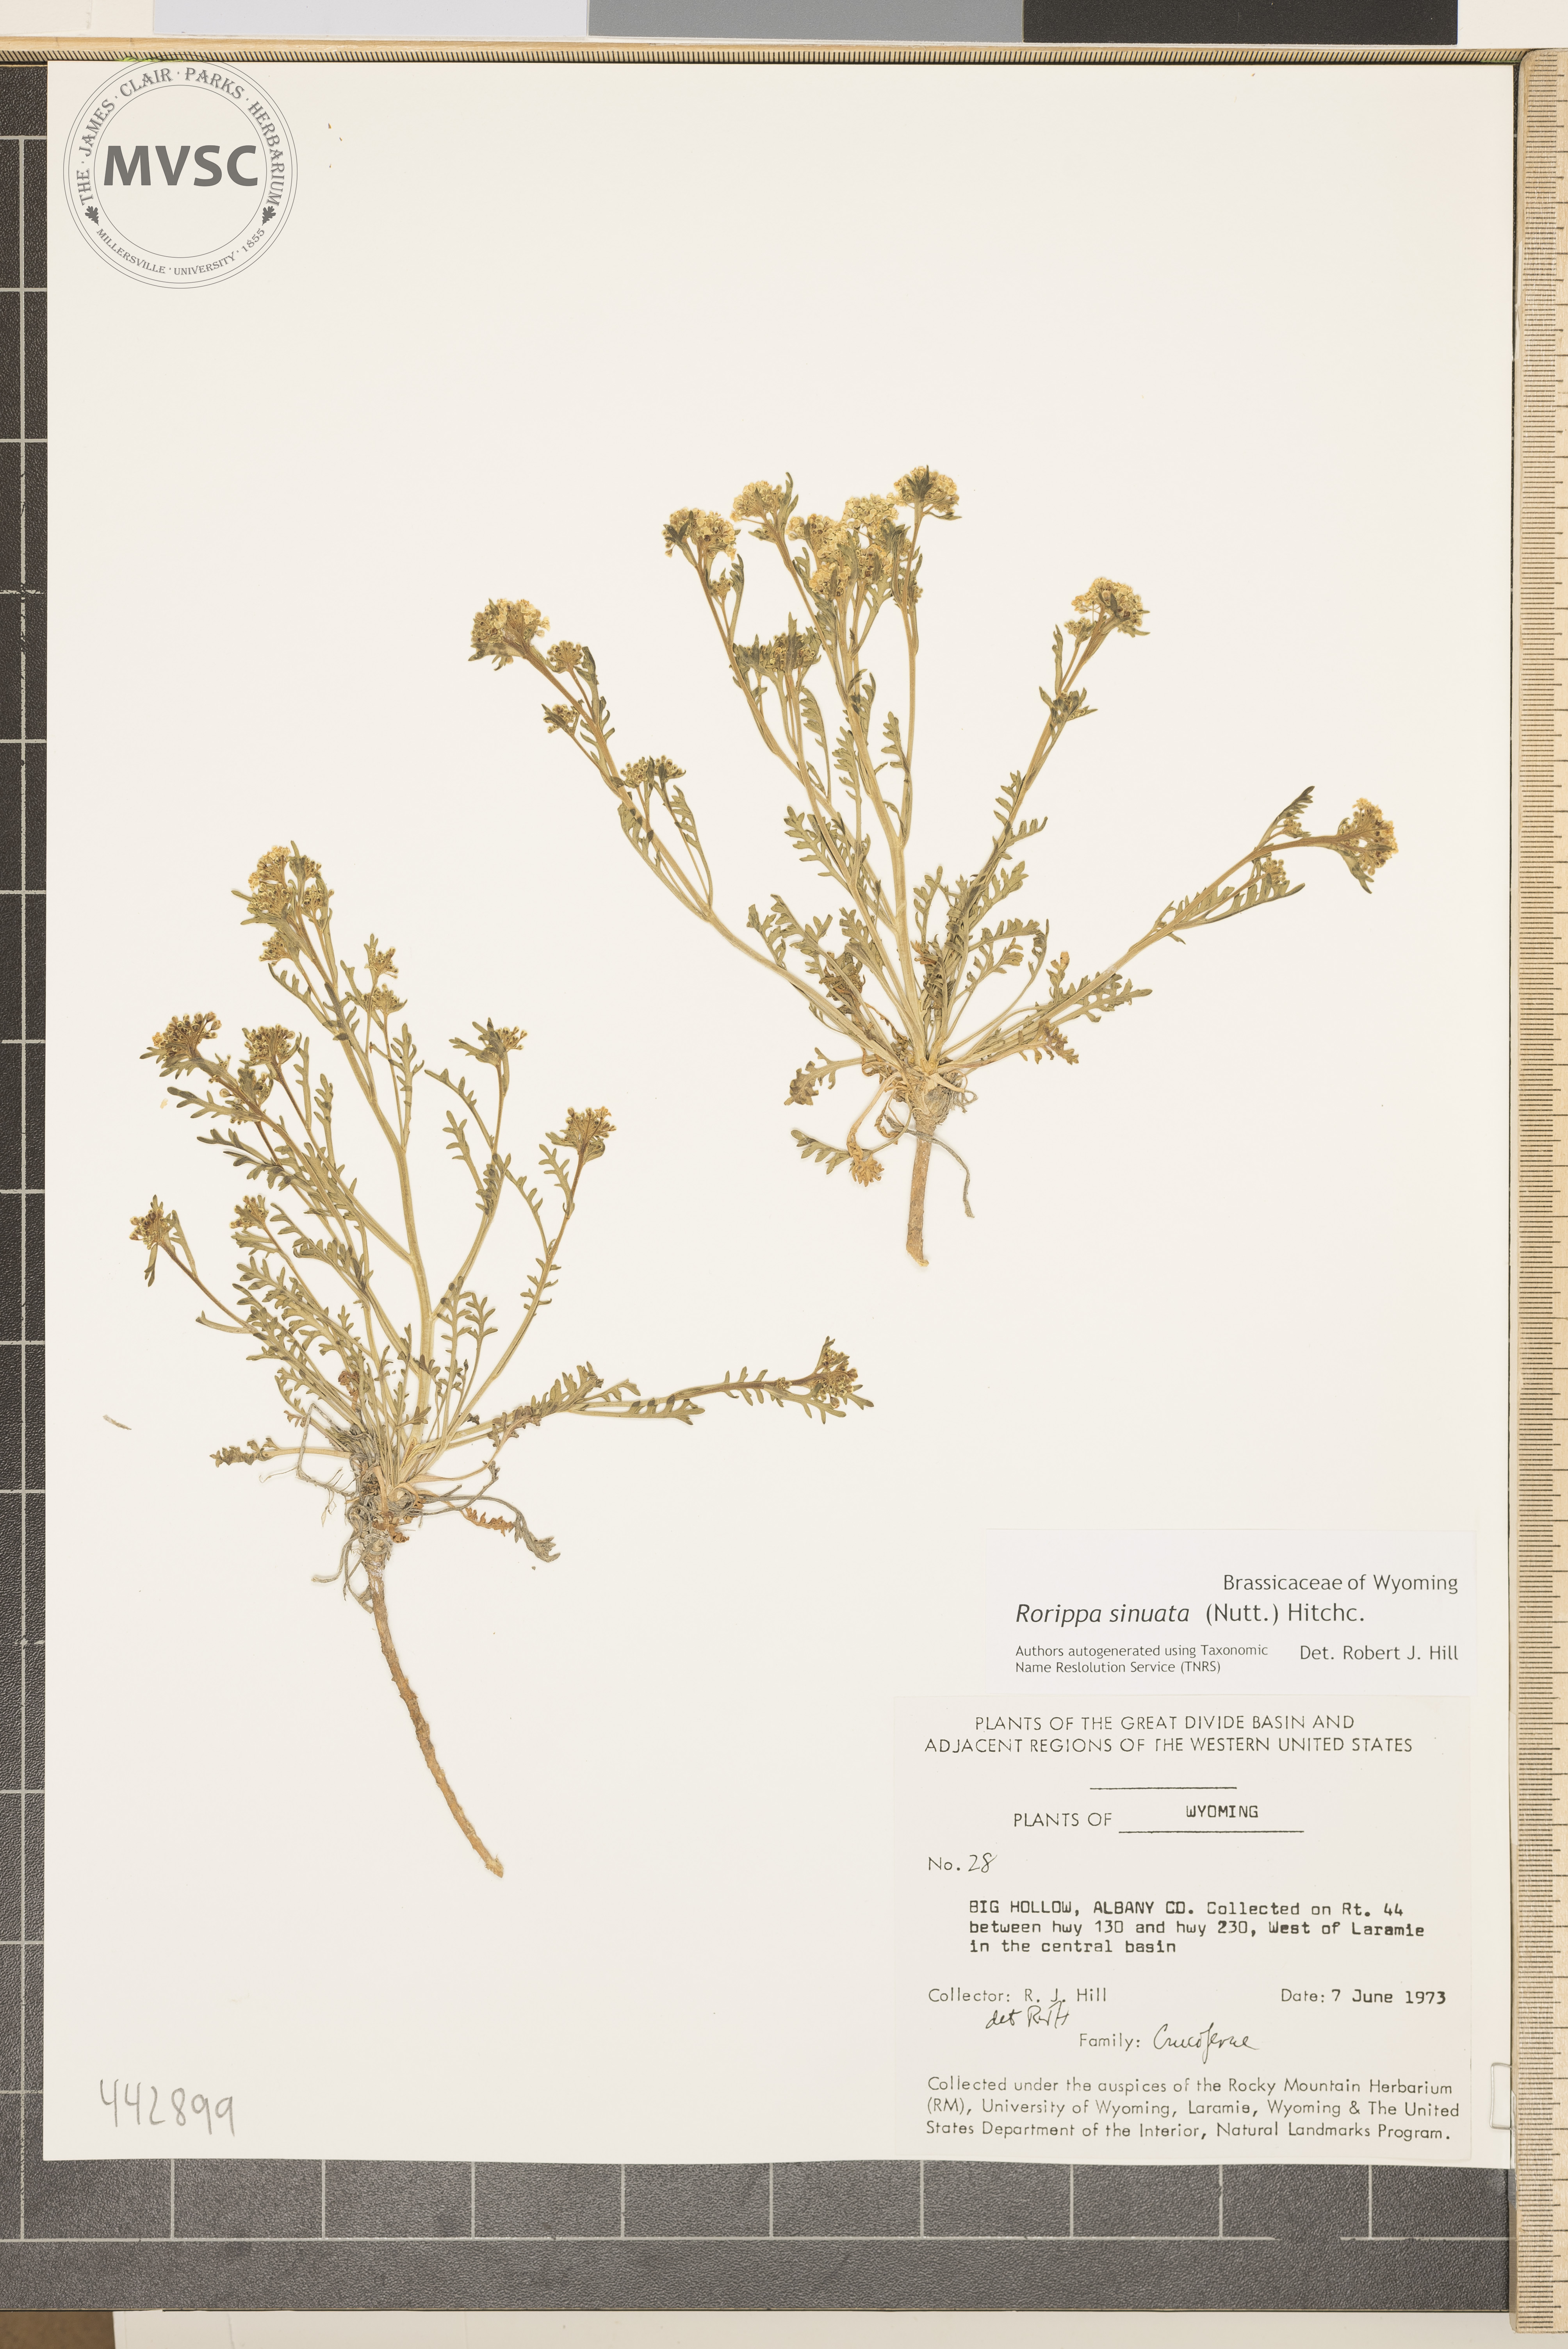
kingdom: Plantae
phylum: Tracheophyta
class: Magnoliopsida
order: Brassicales
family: Brassicaceae
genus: Rorippa
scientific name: Rorippa sinuata
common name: Spread yellow cress
